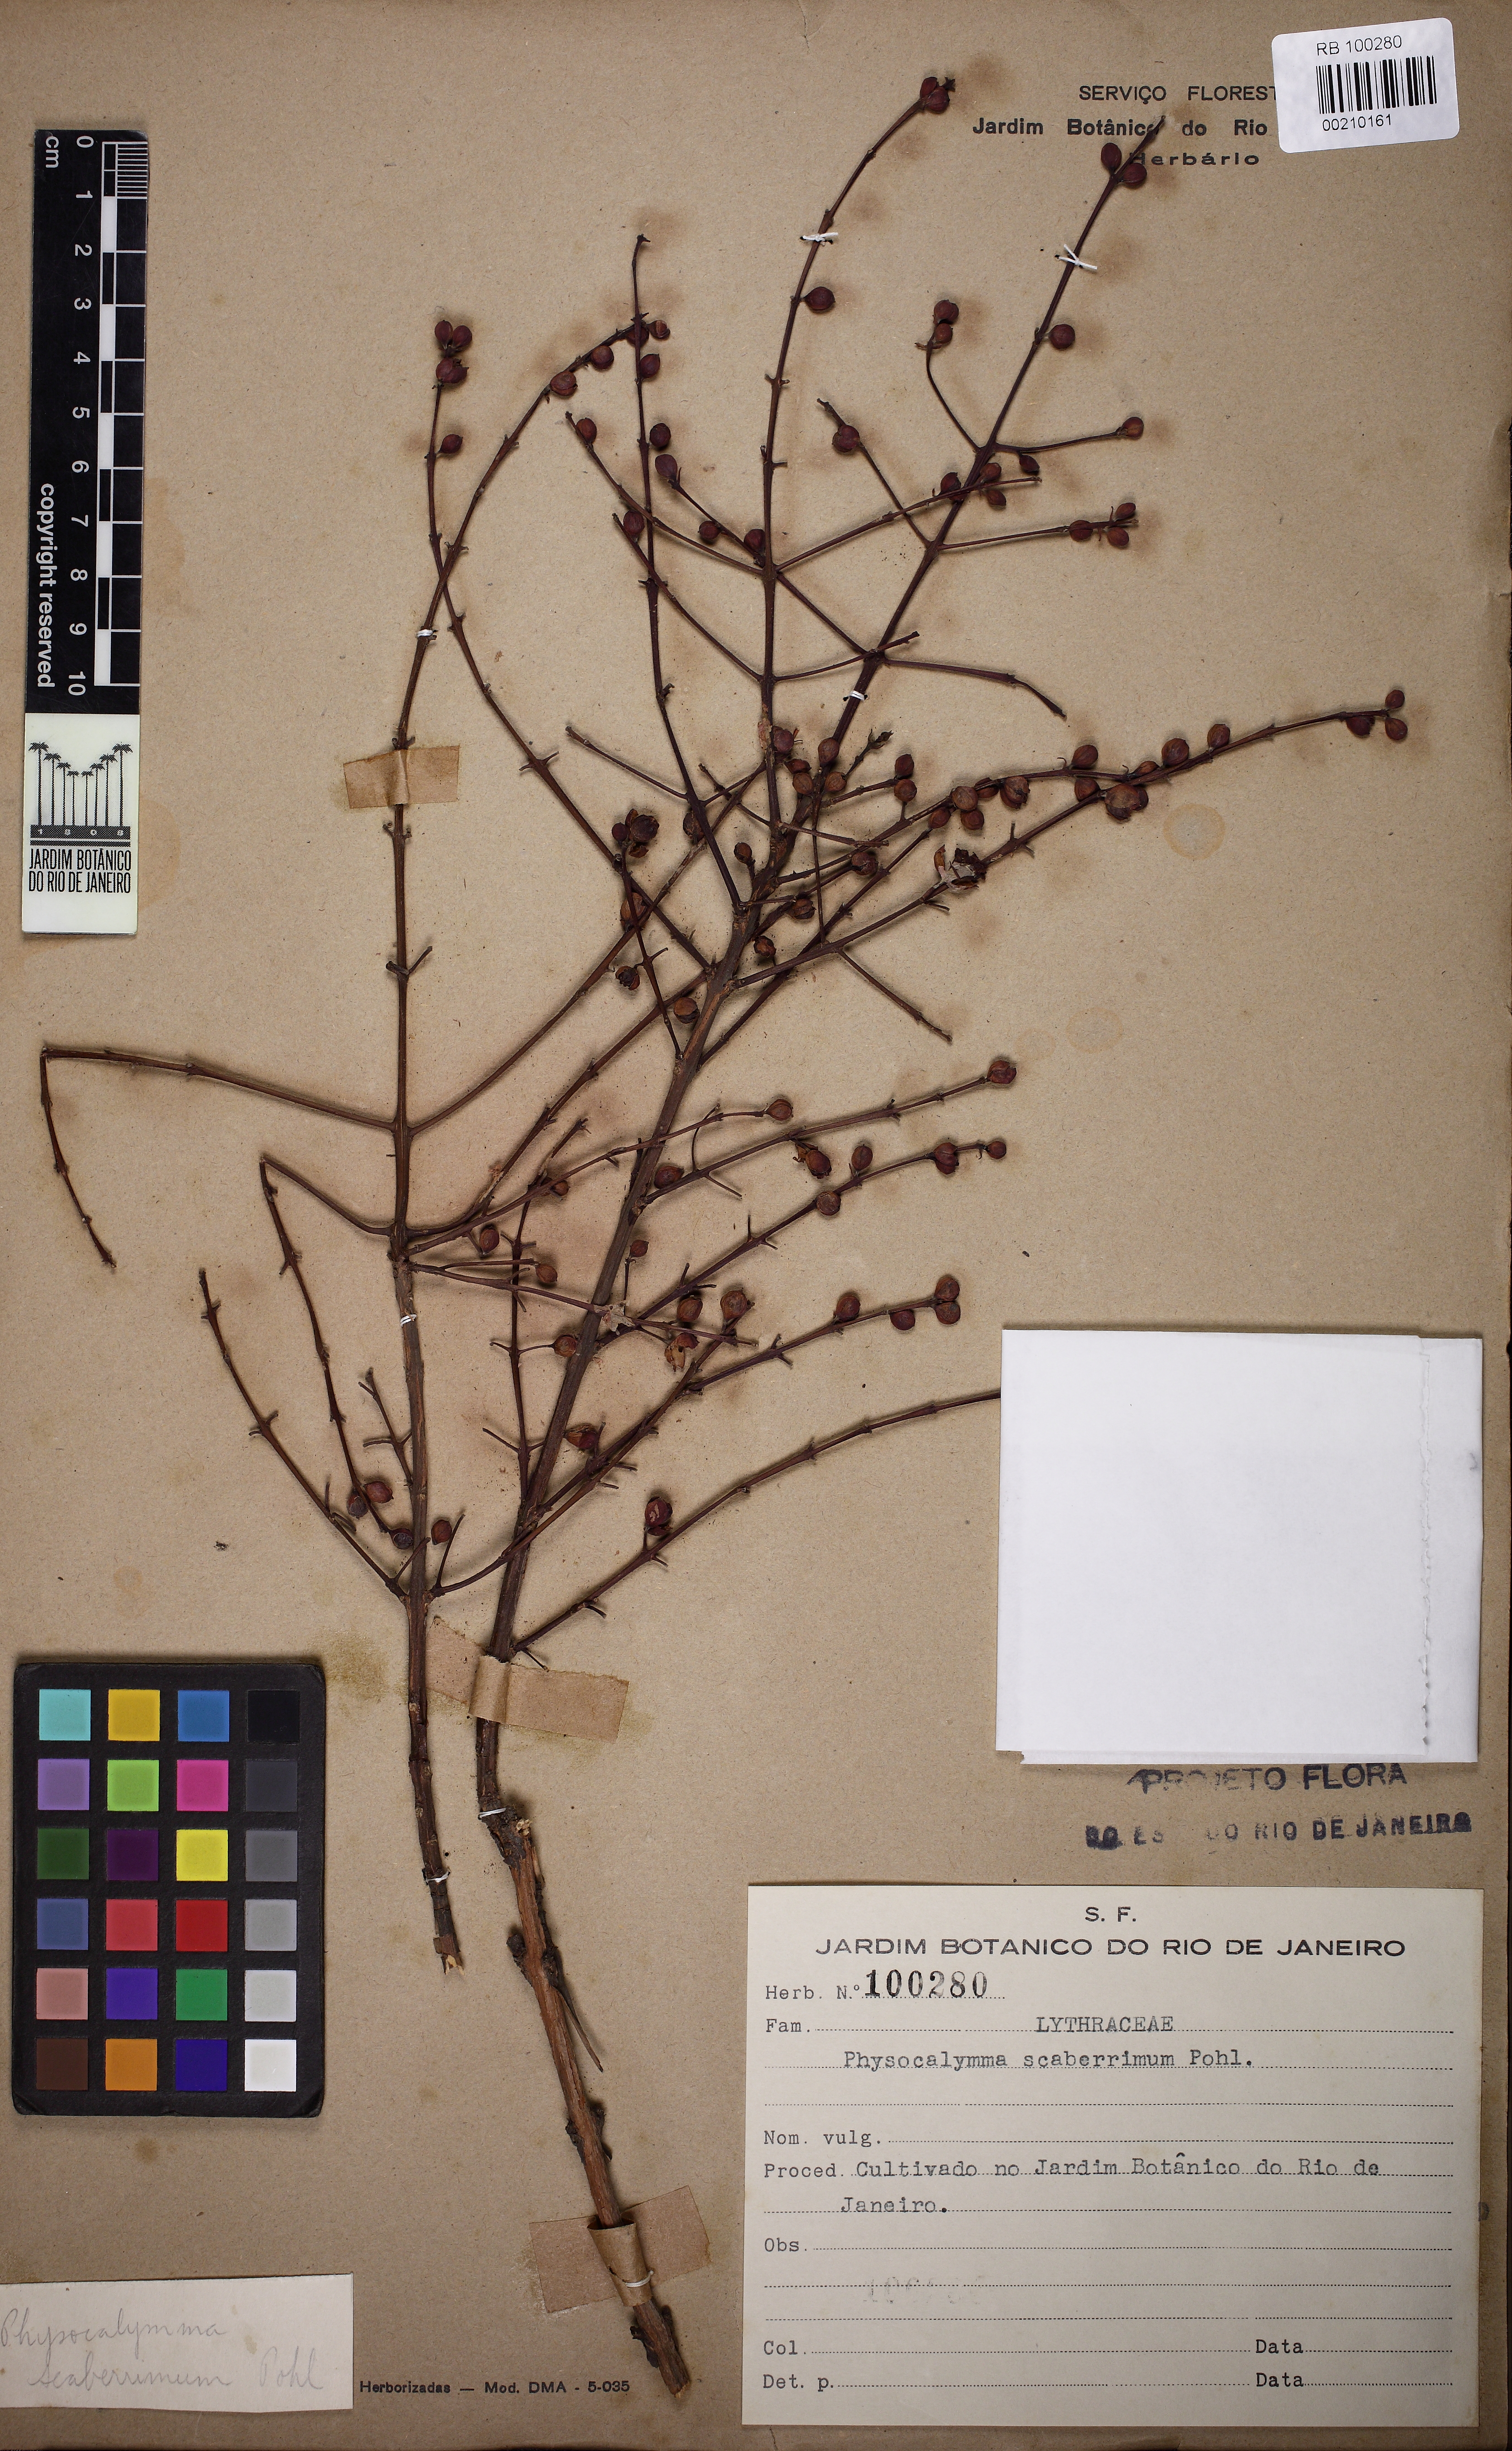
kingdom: Plantae
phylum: Tracheophyta
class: Magnoliopsida
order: Myrtales
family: Lythraceae
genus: Physocalymma
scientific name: Physocalymma scaberrimum
